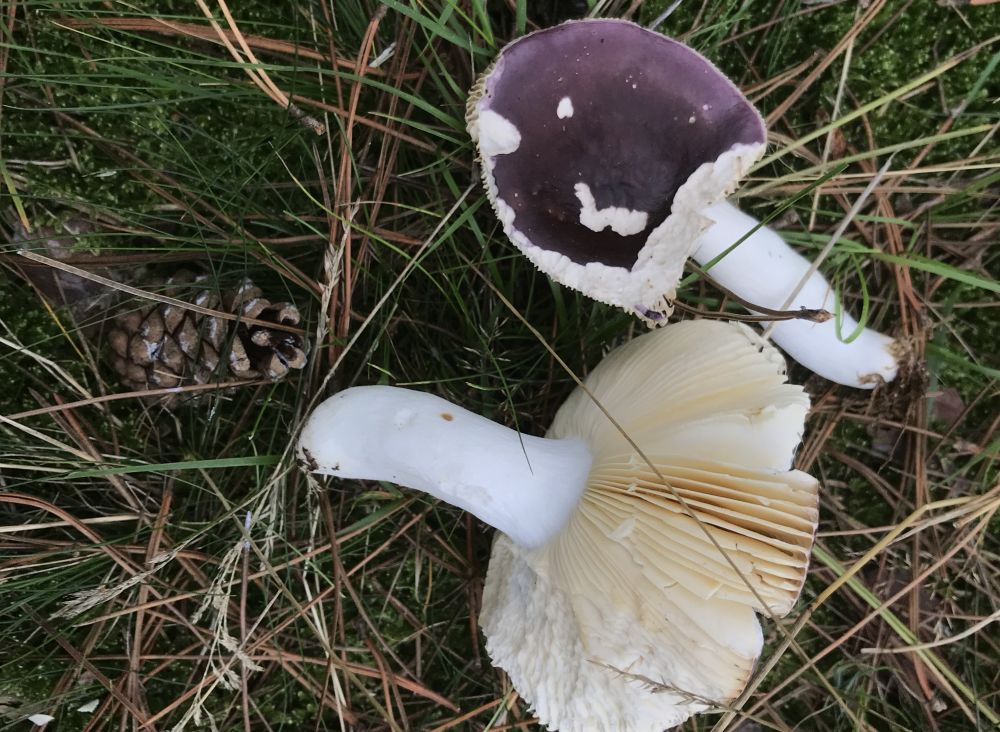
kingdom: Fungi
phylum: Basidiomycota
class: Agaricomycetes
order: Russulales
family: Russulaceae
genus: Russula
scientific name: Russula cessans
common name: fyrre-skørhat
